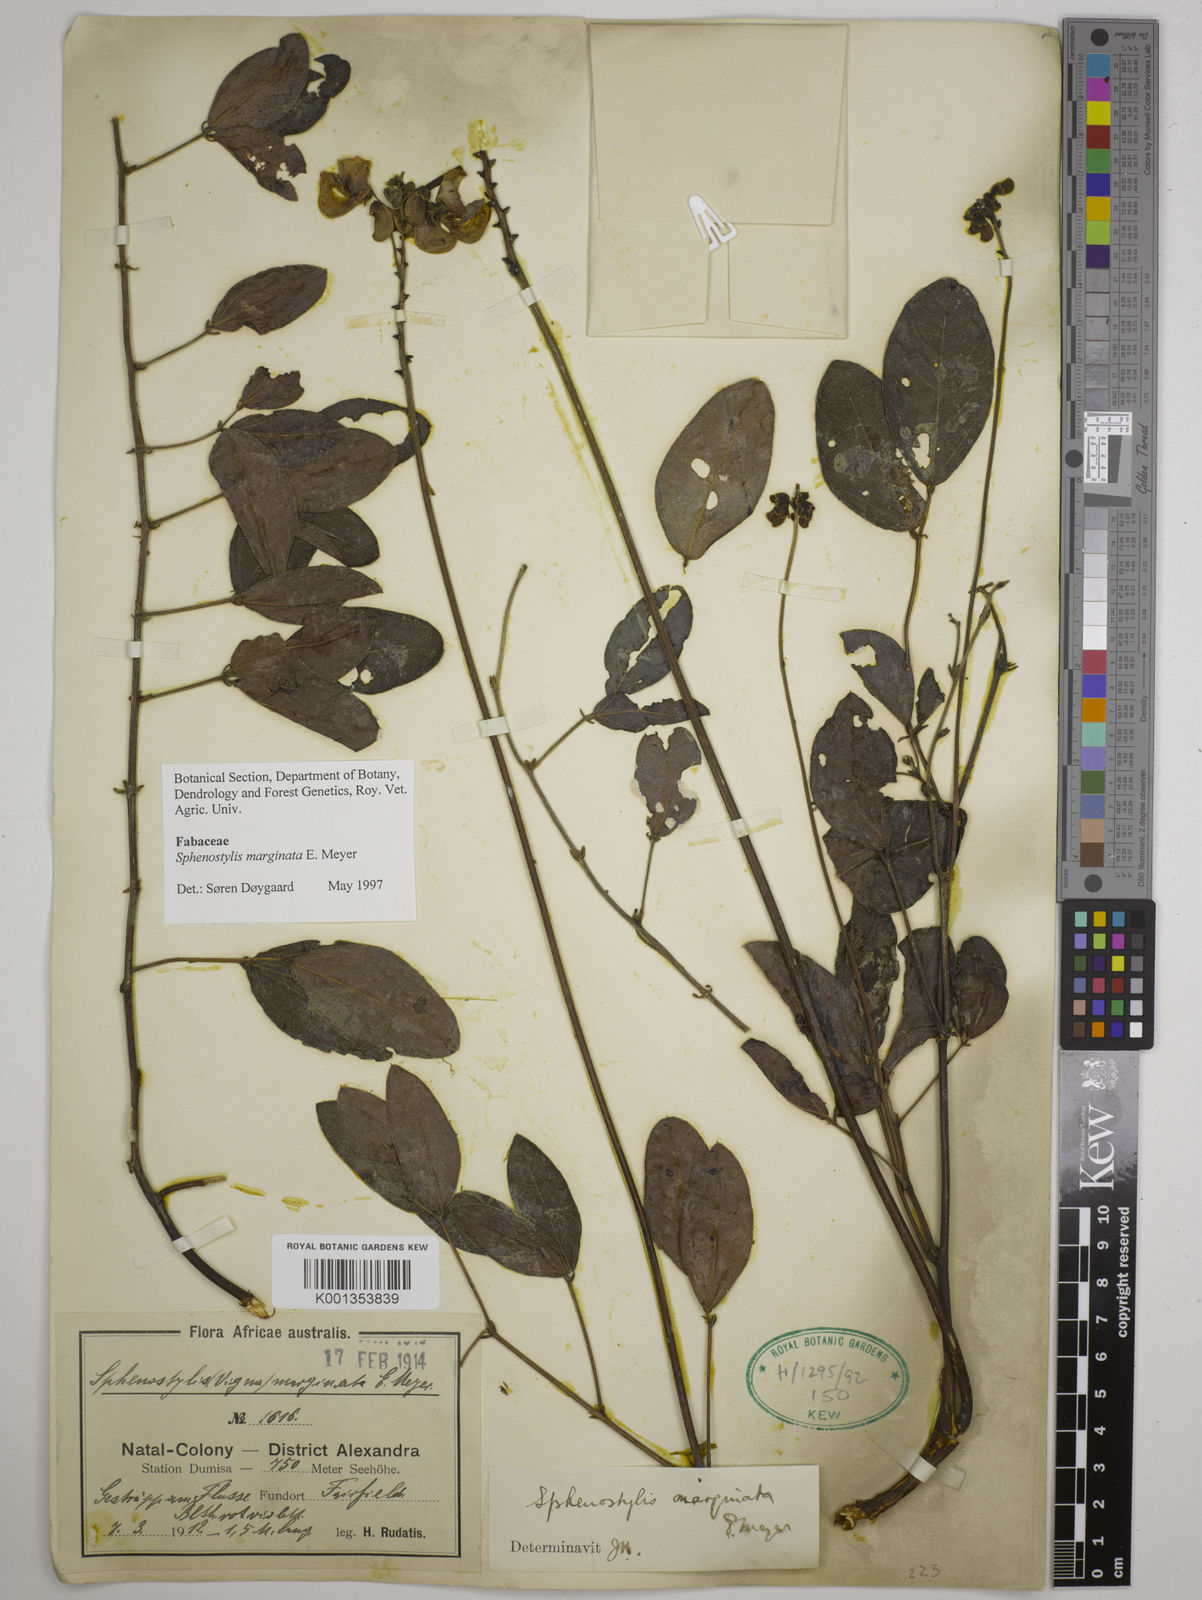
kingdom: Plantae
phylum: Tracheophyta
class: Magnoliopsida
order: Fabales
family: Fabaceae
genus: Sphenostylis
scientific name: Sphenostylis marginata
